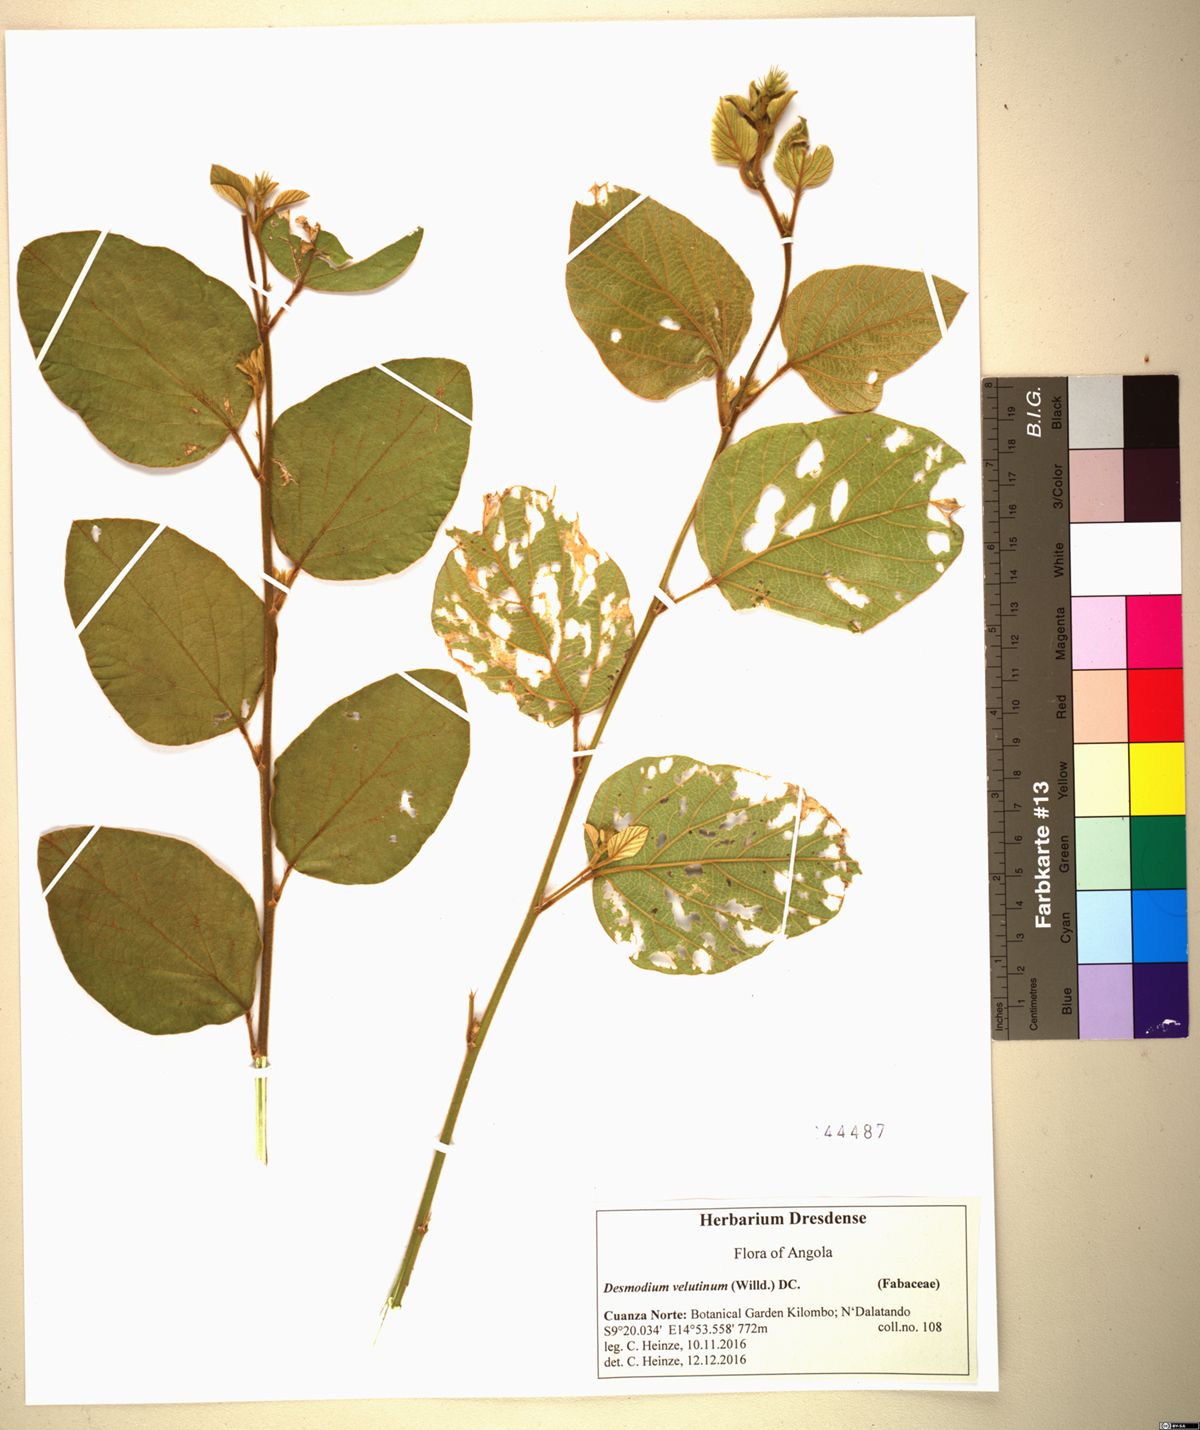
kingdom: Plantae
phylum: Tracheophyta
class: Magnoliopsida
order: Fabales
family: Fabaceae
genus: Polhillides
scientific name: Polhillides velutina
